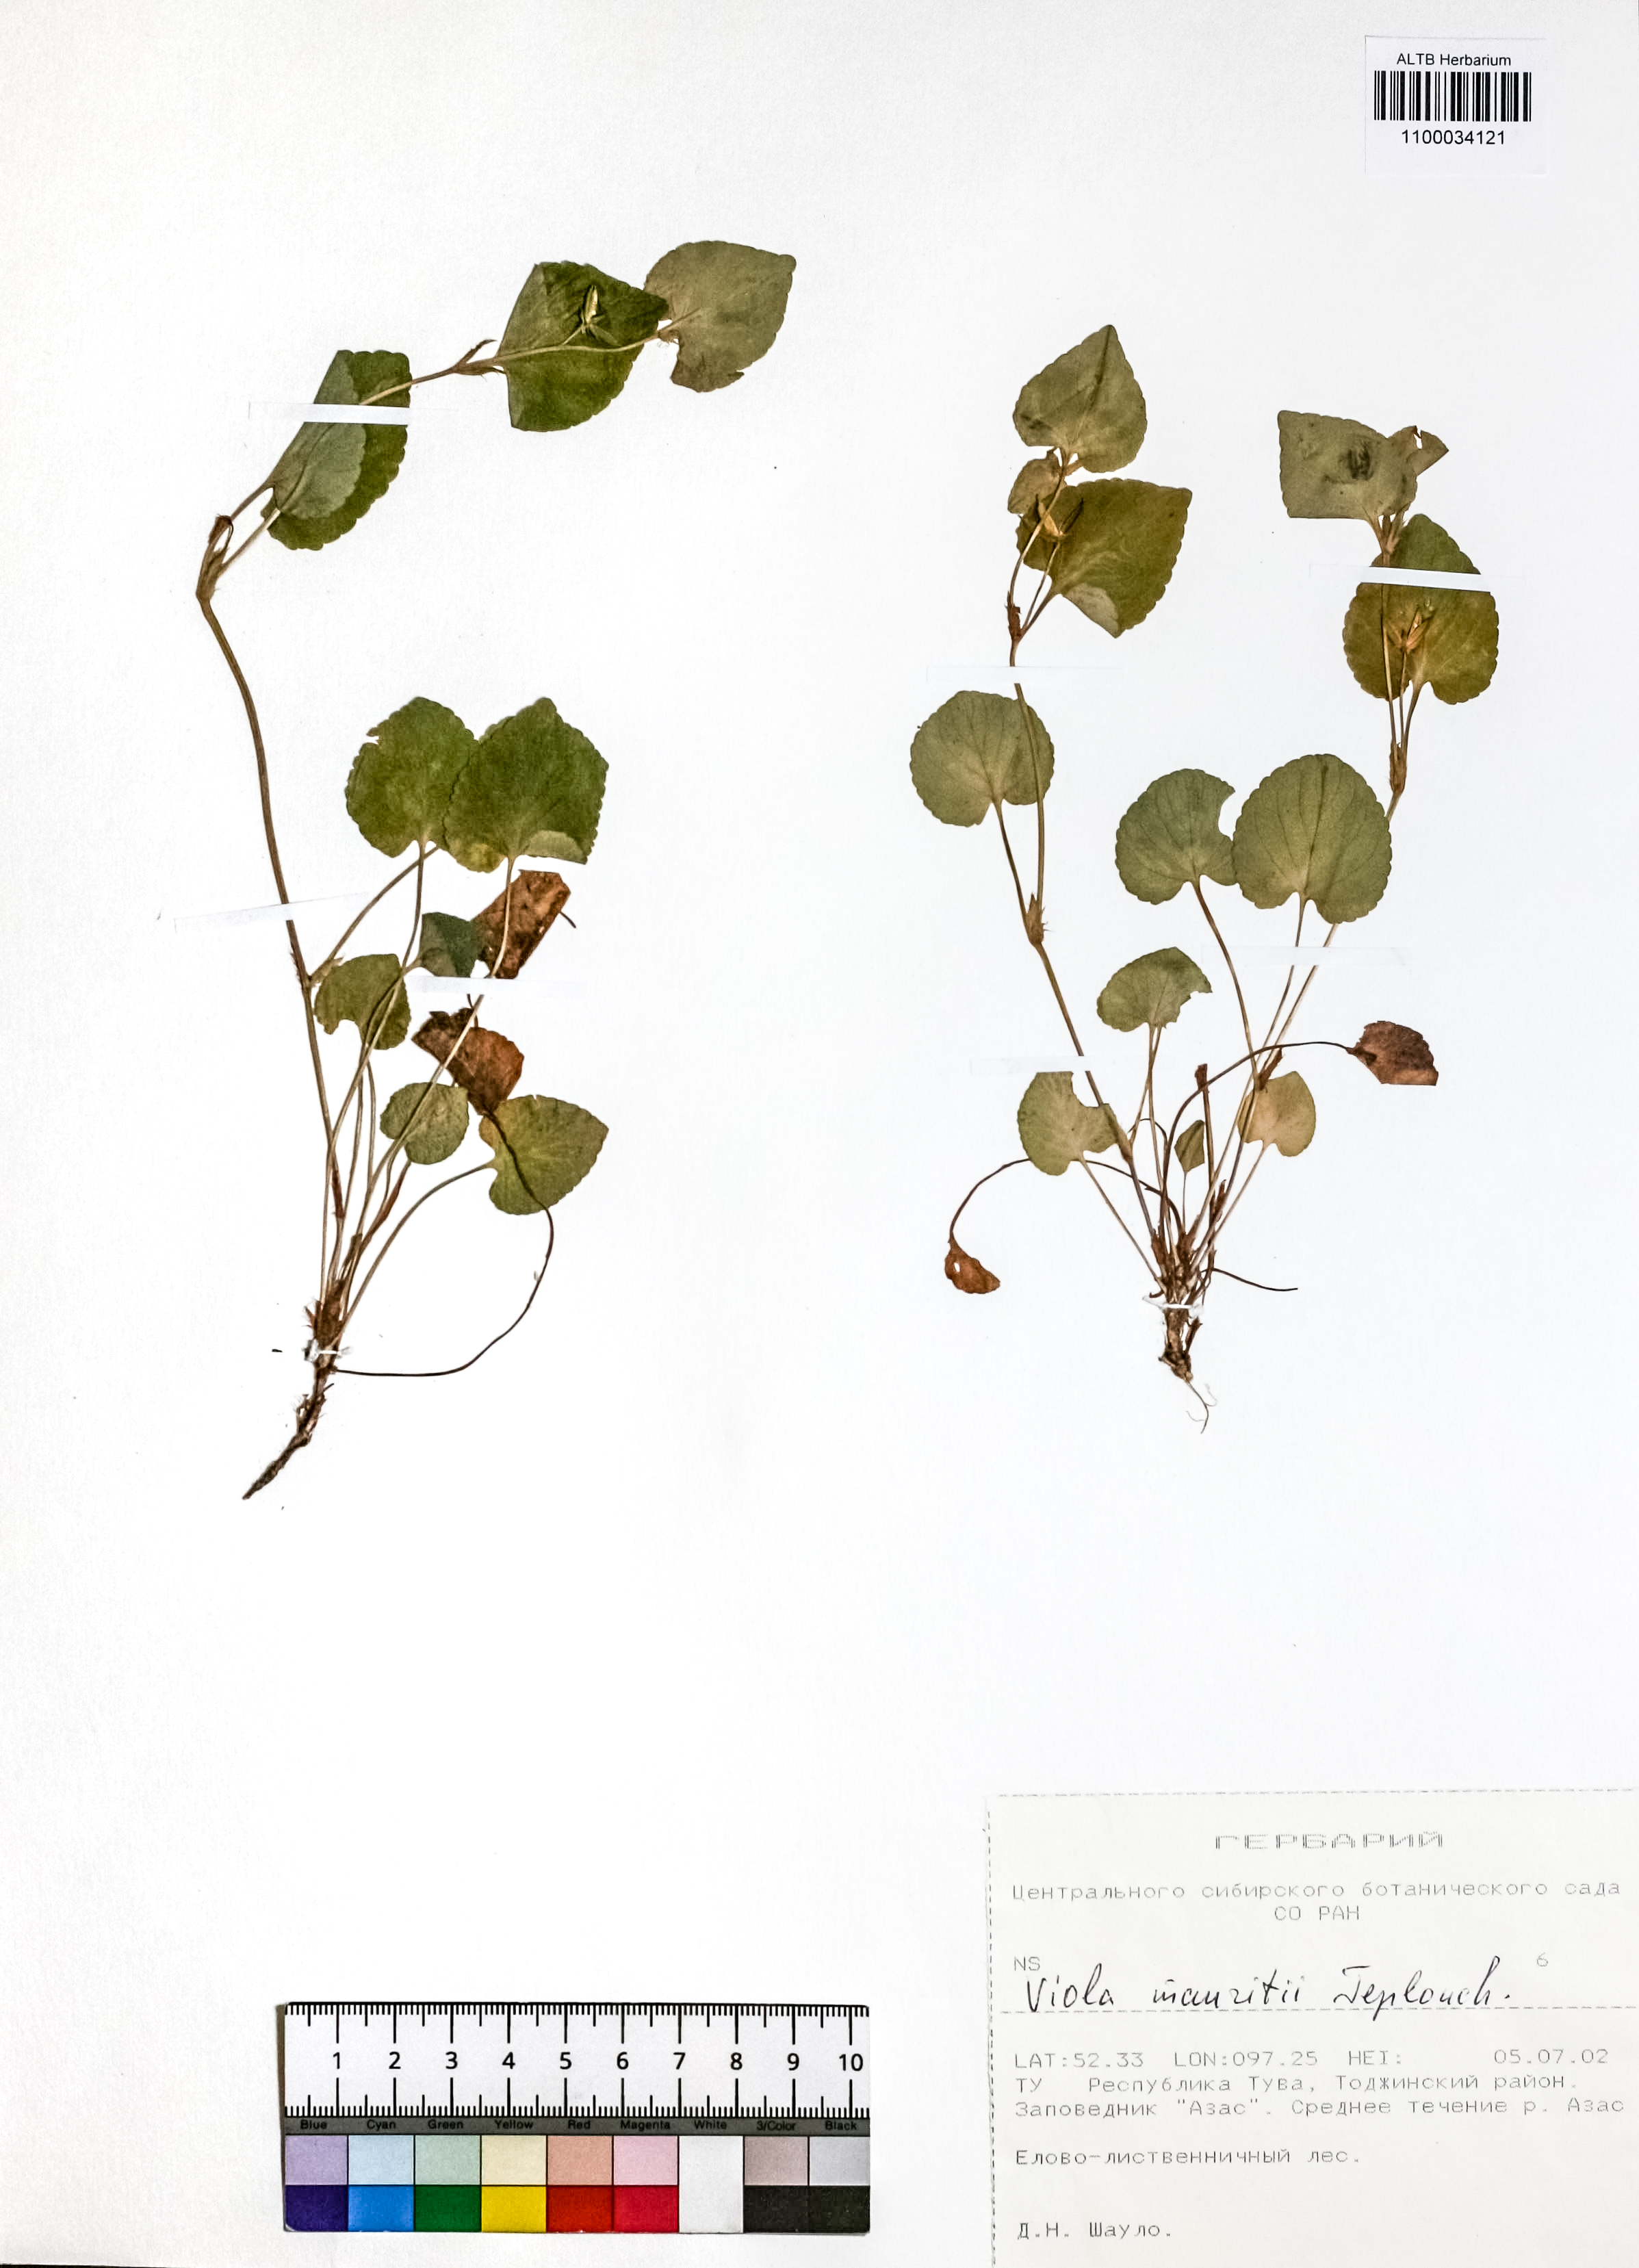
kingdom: Plantae
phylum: Tracheophyta
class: Magnoliopsida
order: Malpighiales
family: Violaceae
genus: Viola
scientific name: Viola mauritii
